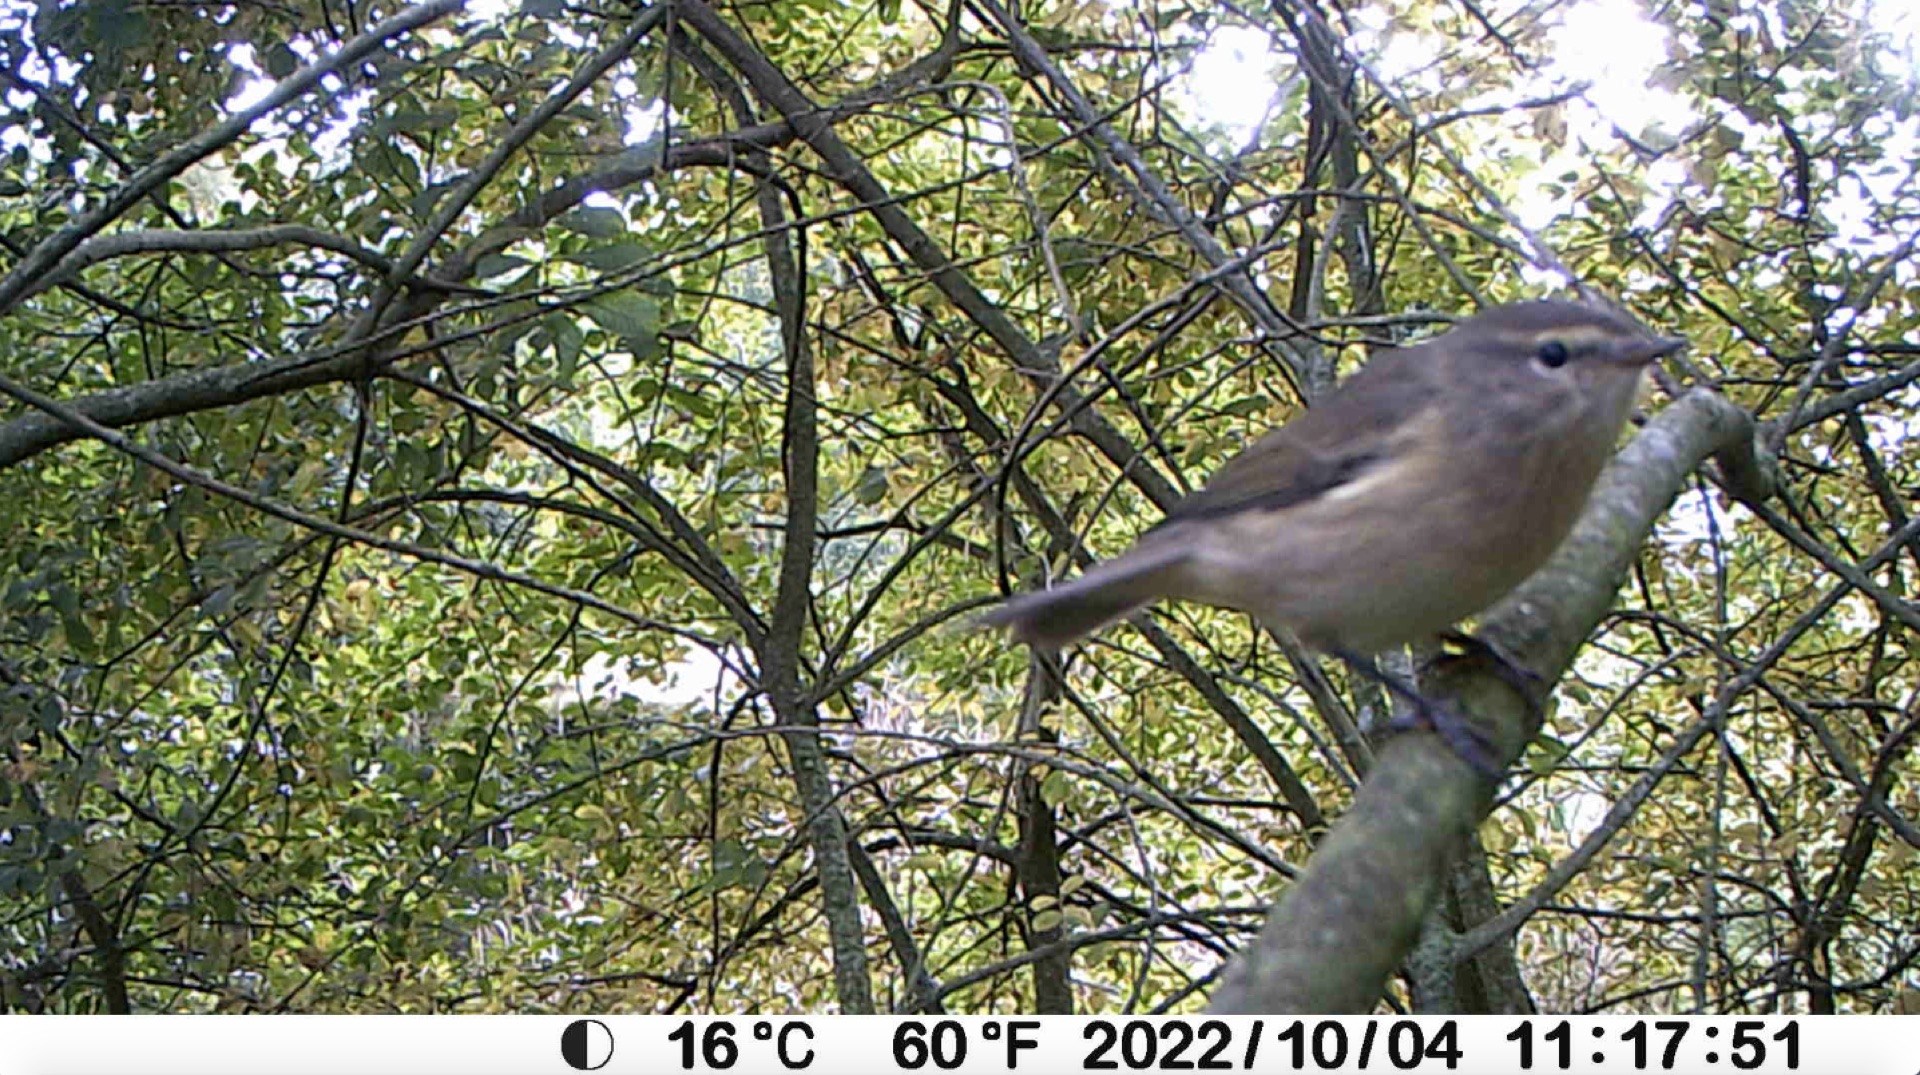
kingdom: Animalia
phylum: Chordata
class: Aves
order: Passeriformes
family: Phylloscopidae
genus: Phylloscopus
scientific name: Phylloscopus collybita
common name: Gransanger
